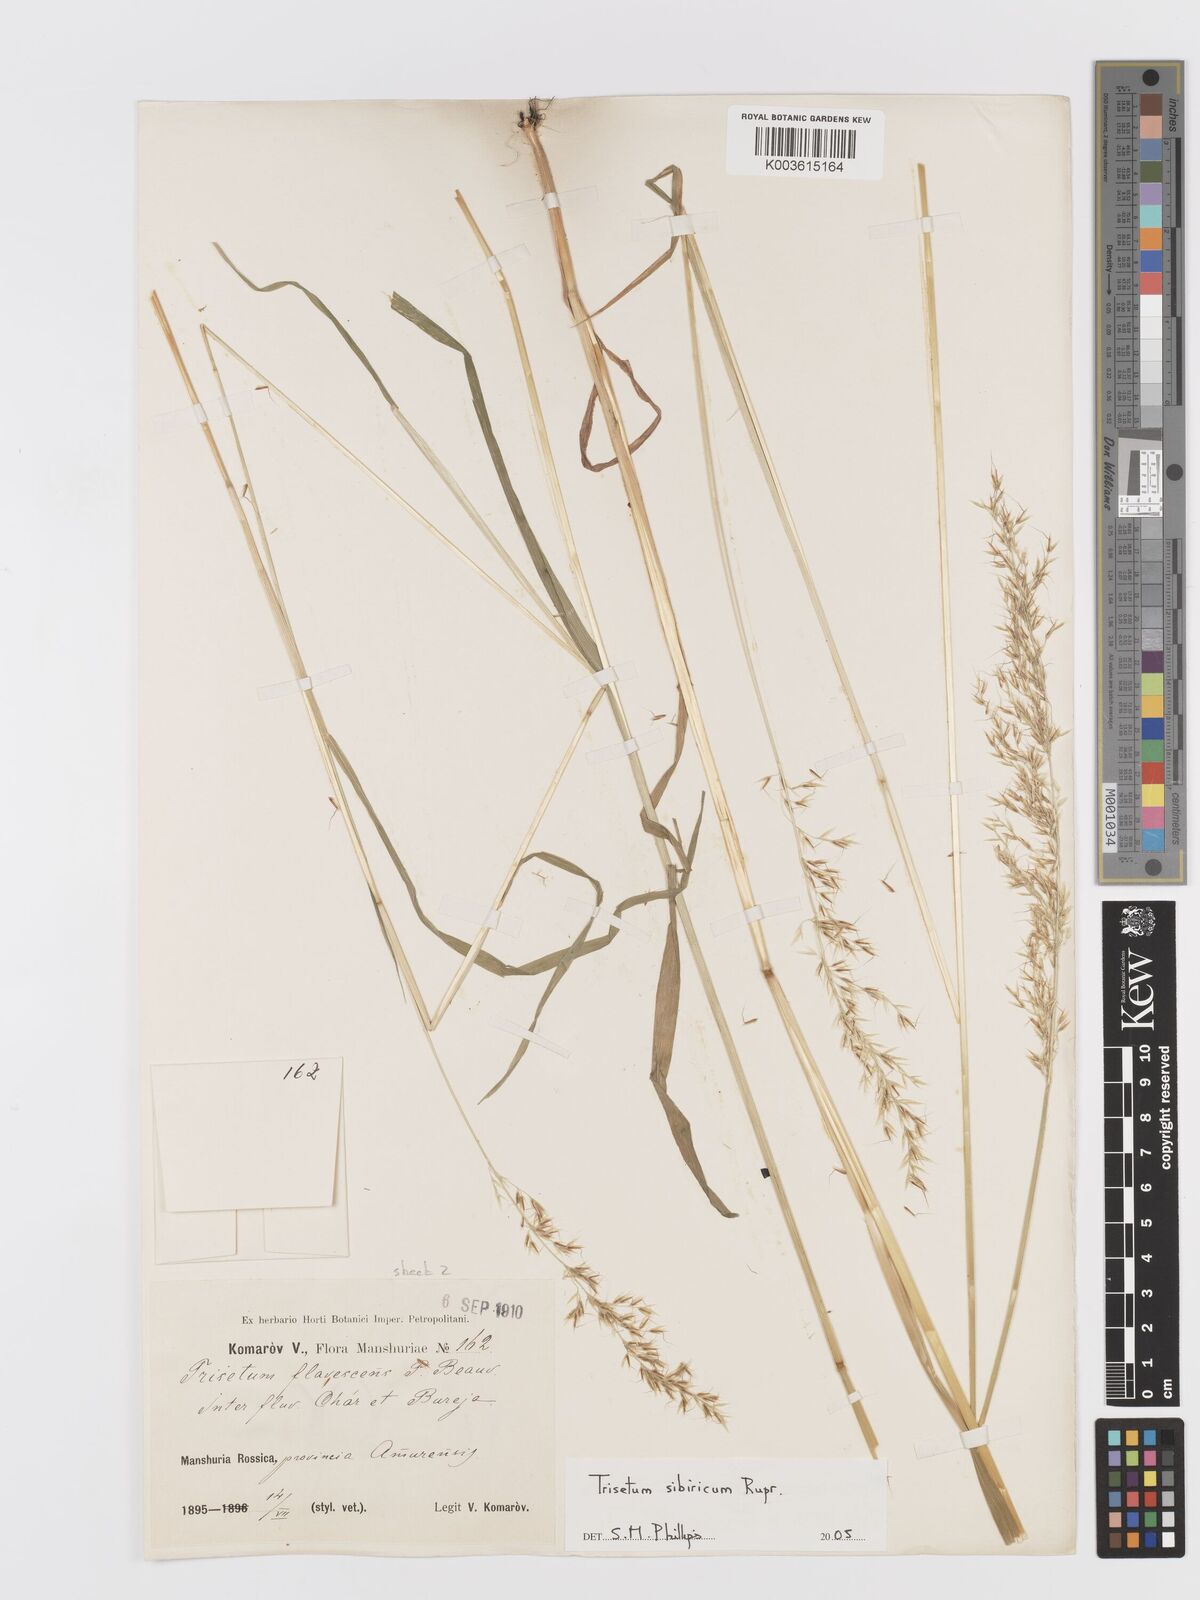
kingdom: Plantae
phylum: Tracheophyta
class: Liliopsida
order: Poales
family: Poaceae
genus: Sibirotrisetum
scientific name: Sibirotrisetum sibiricum
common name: Siberian false oat
